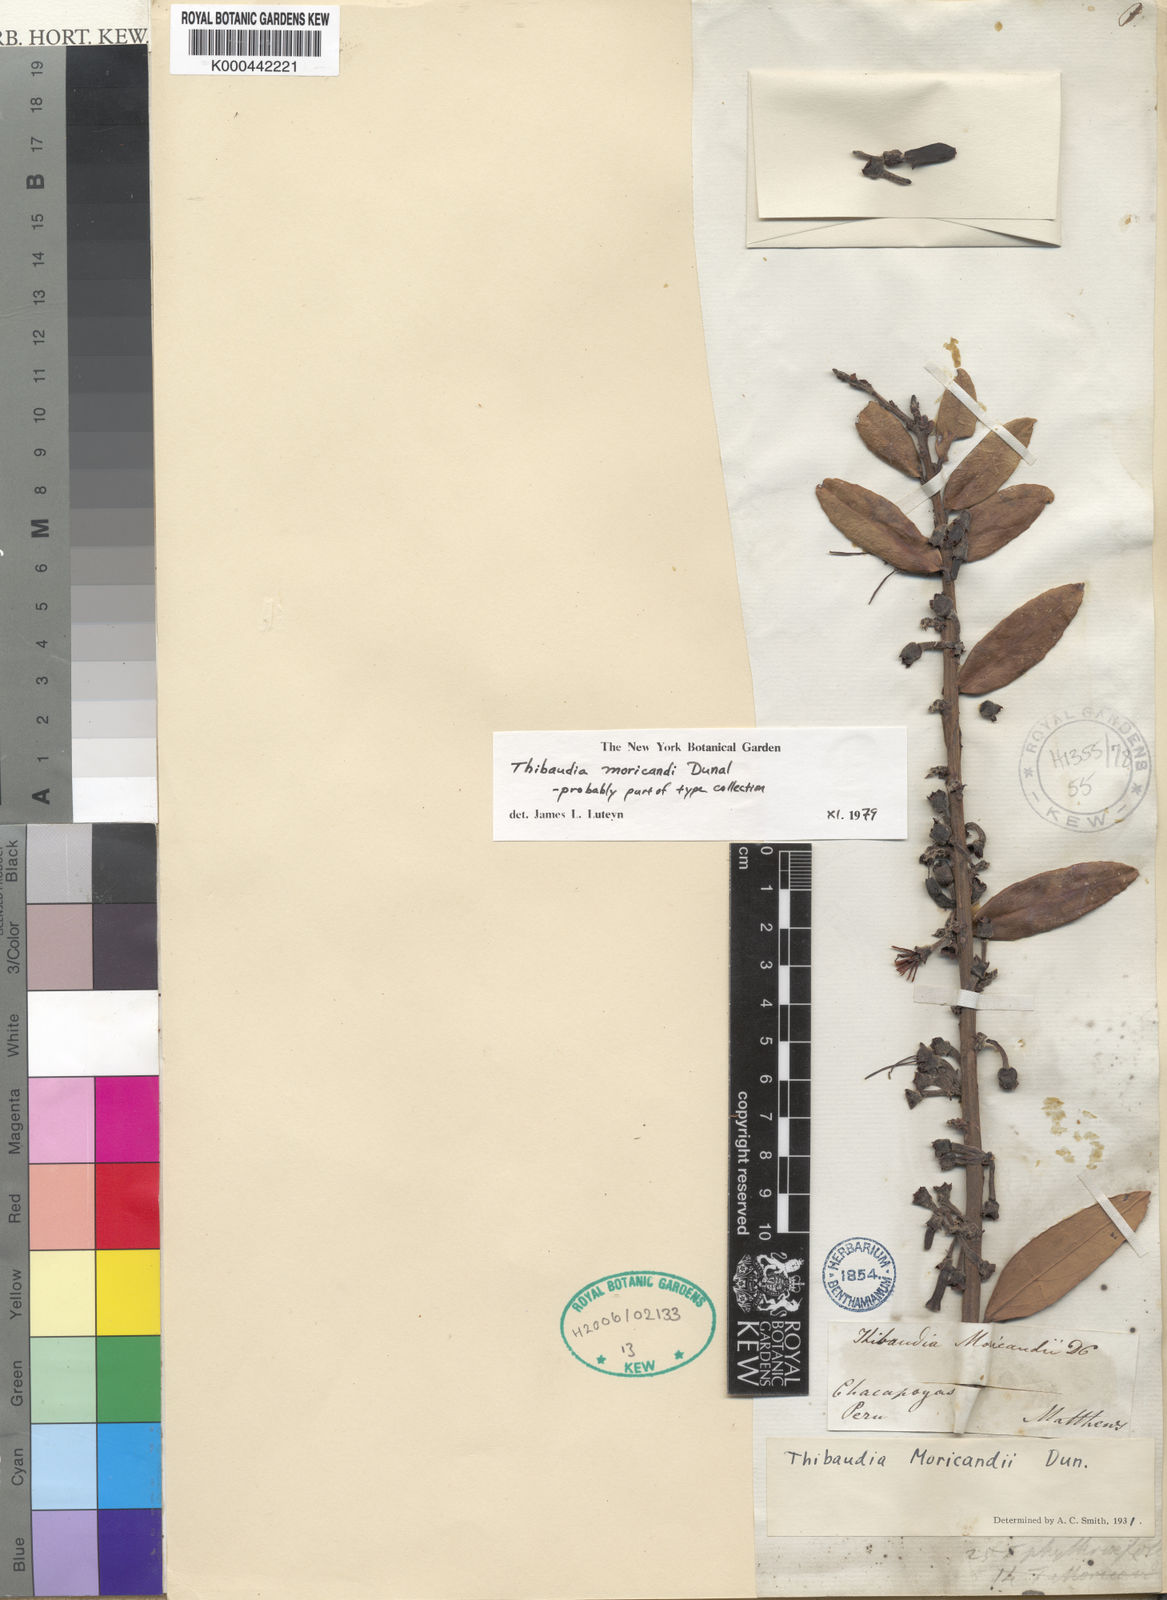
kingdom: Plantae
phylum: Tracheophyta
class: Magnoliopsida
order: Ericales
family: Ericaceae
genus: Thibaudia
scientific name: Thibaudia moricandii
